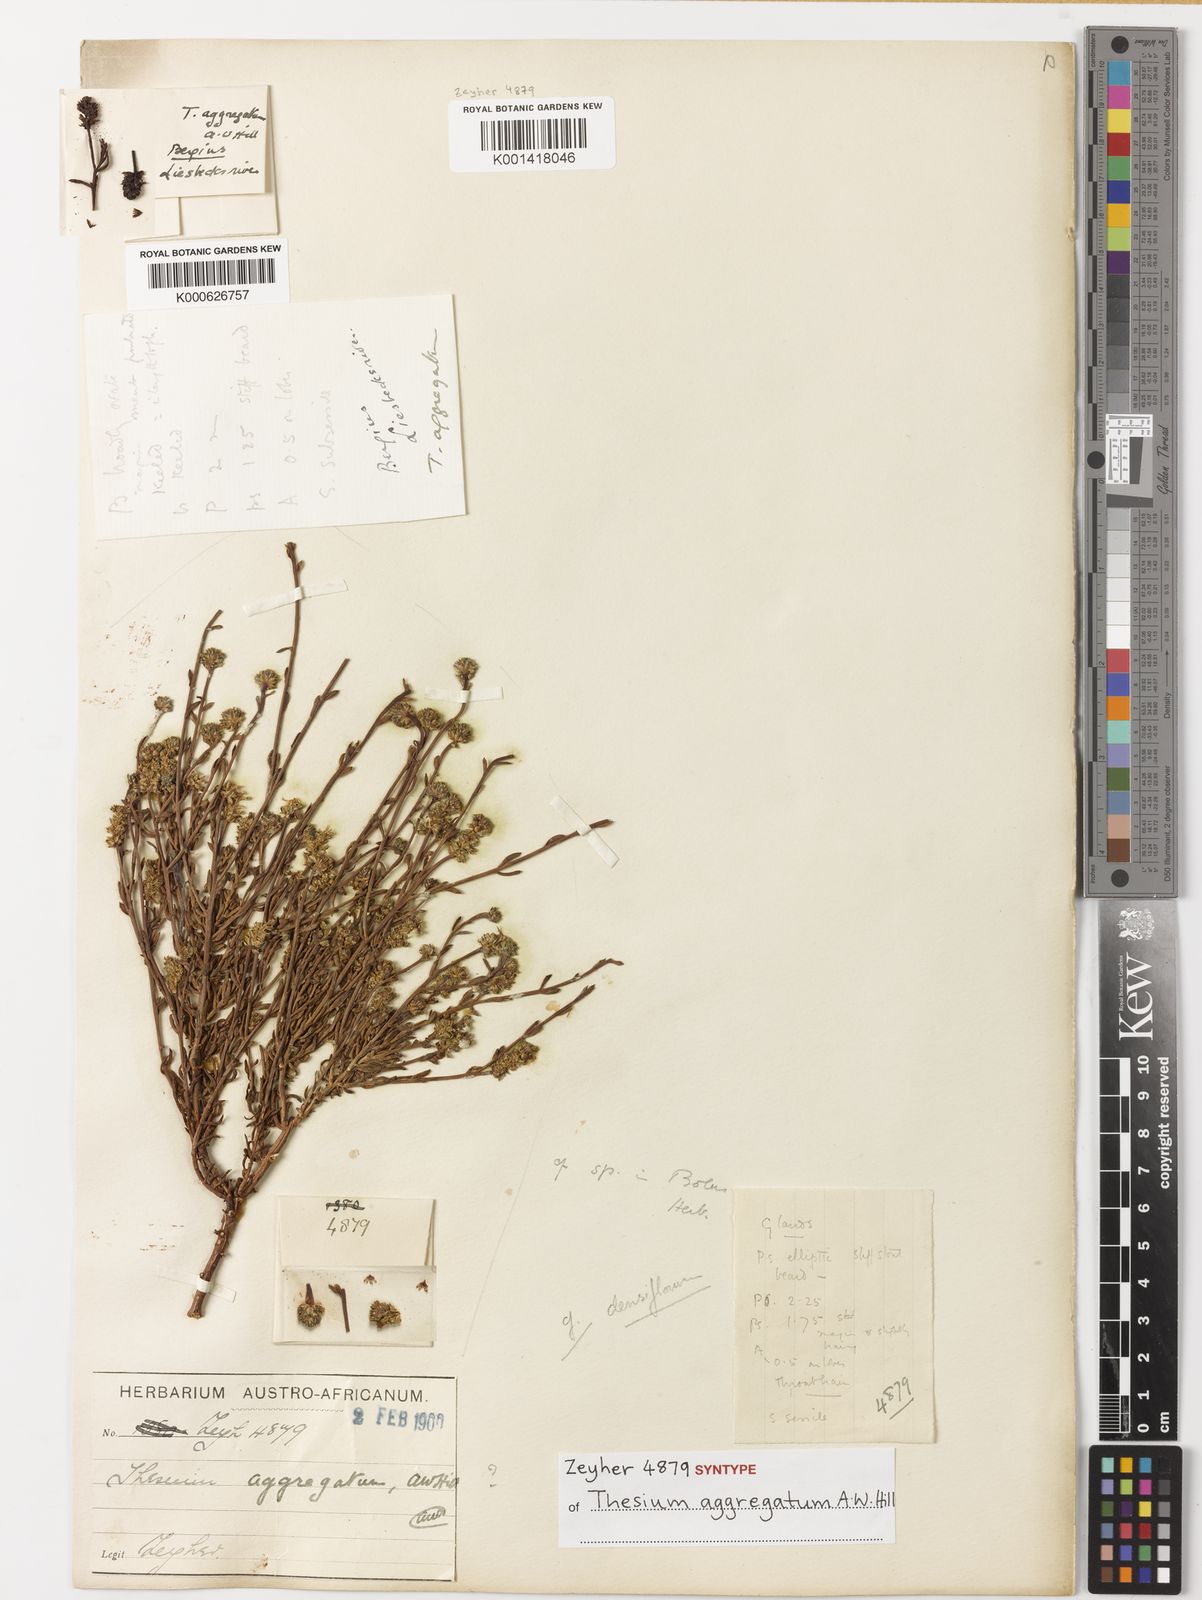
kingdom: Plantae
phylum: Tracheophyta
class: Magnoliopsida
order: Santalales
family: Thesiaceae
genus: Thesium
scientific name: Thesium aggregatum
